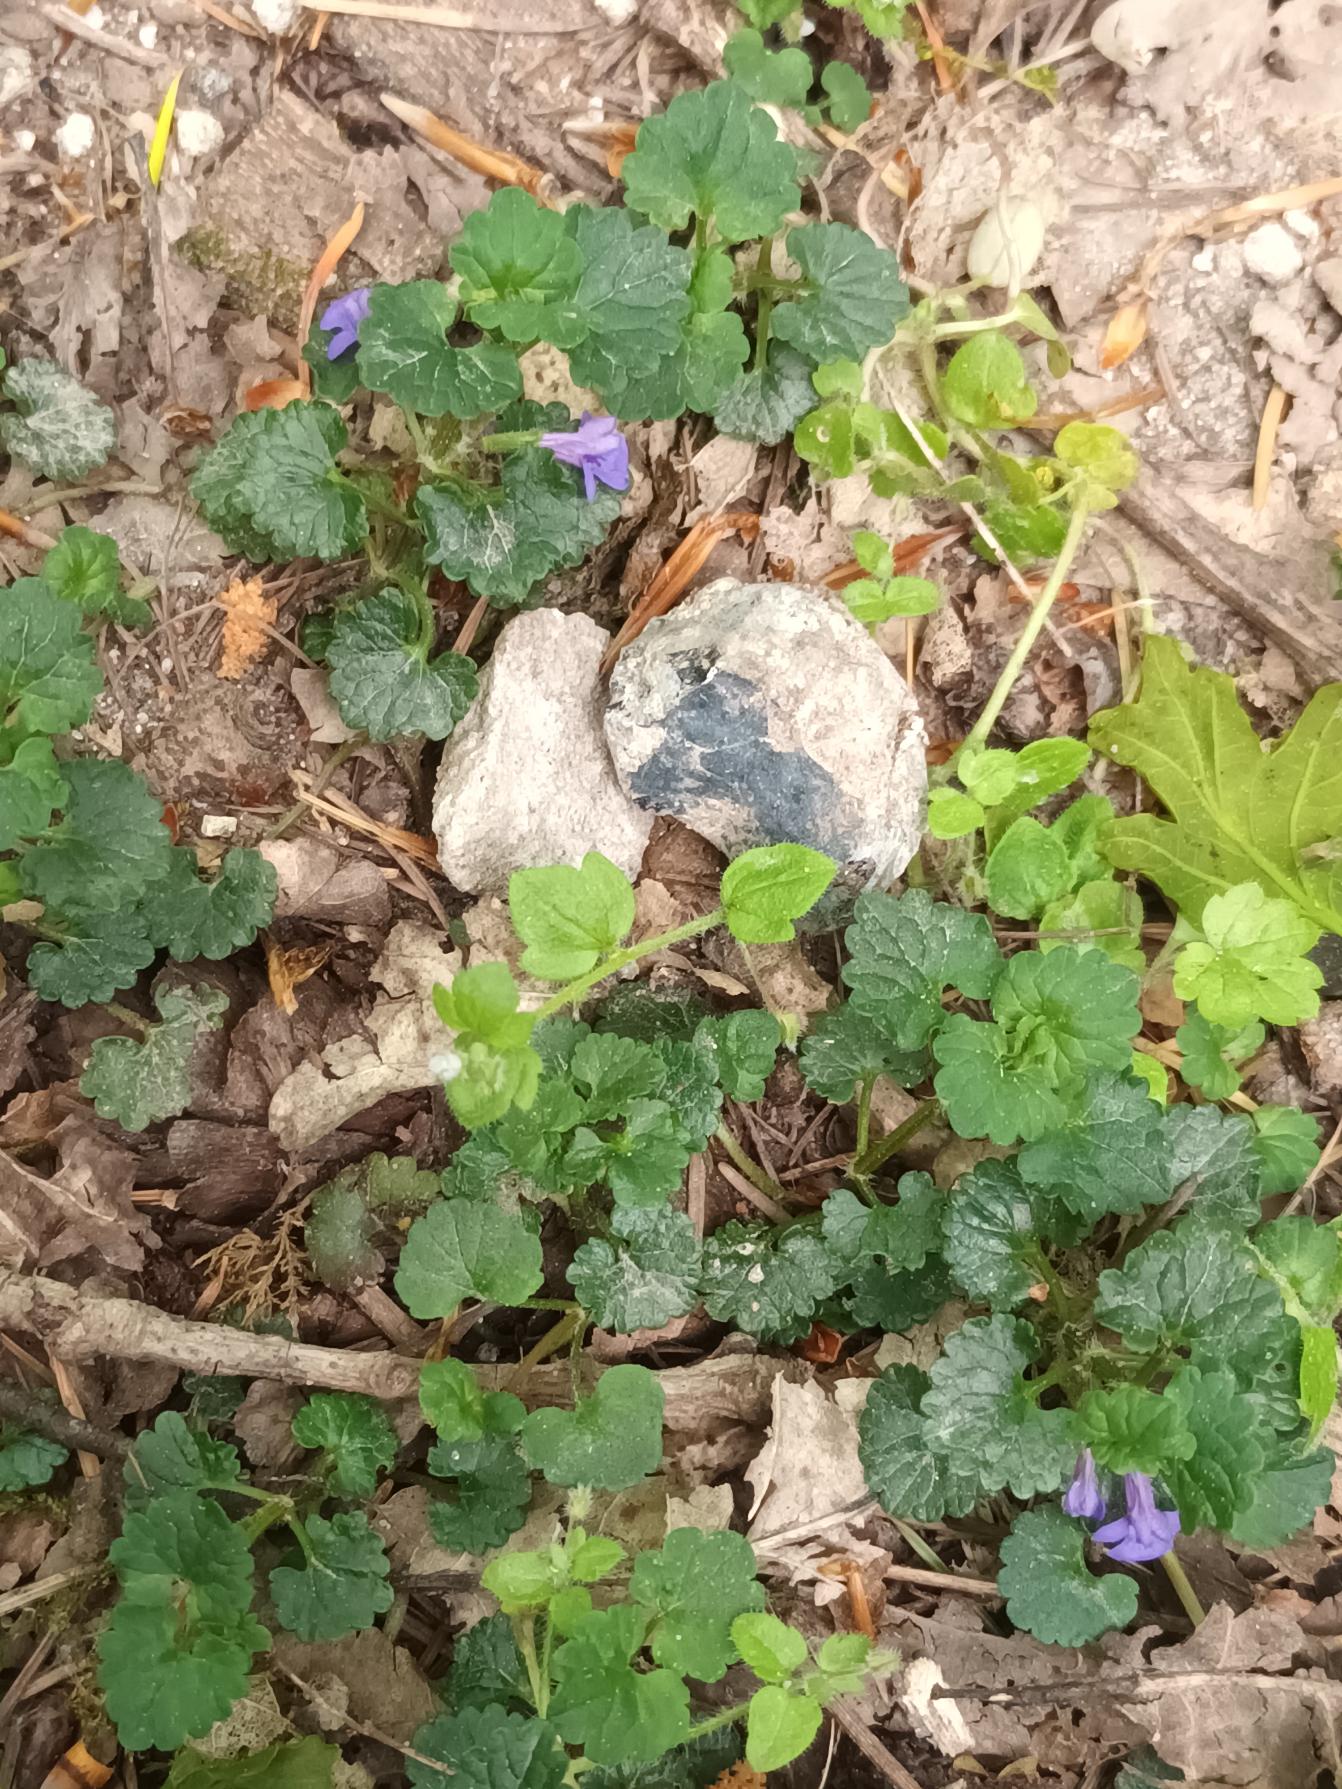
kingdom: Plantae
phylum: Tracheophyta
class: Magnoliopsida
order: Lamiales
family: Lamiaceae
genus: Glechoma
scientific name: Glechoma hederacea
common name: Korsknap
